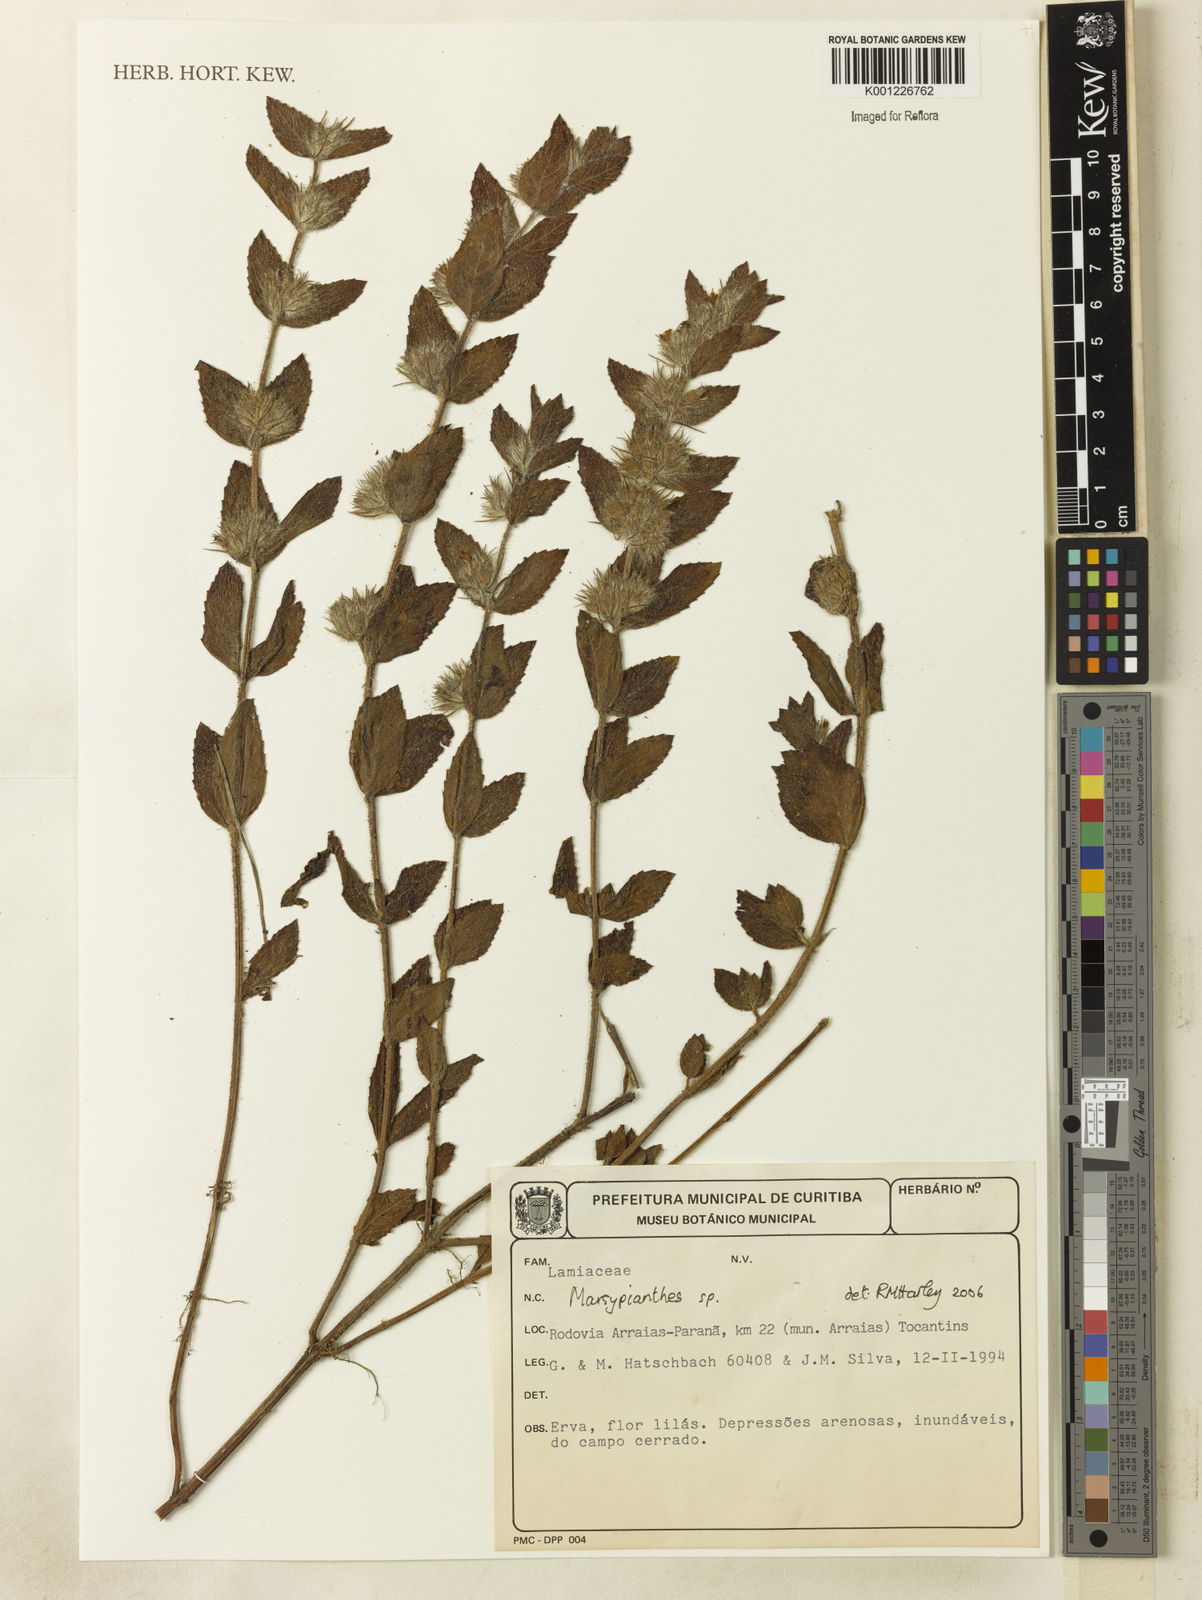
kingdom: Plantae
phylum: Tracheophyta
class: Magnoliopsida
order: Lamiales
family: Lamiaceae
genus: Marsypianthes
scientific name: Marsypianthes
